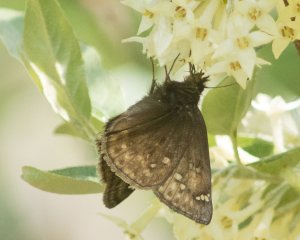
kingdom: Animalia
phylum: Arthropoda
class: Insecta
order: Lepidoptera
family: Hesperiidae
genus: Gesta
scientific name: Gesta
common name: Juvenal's Duskywing
